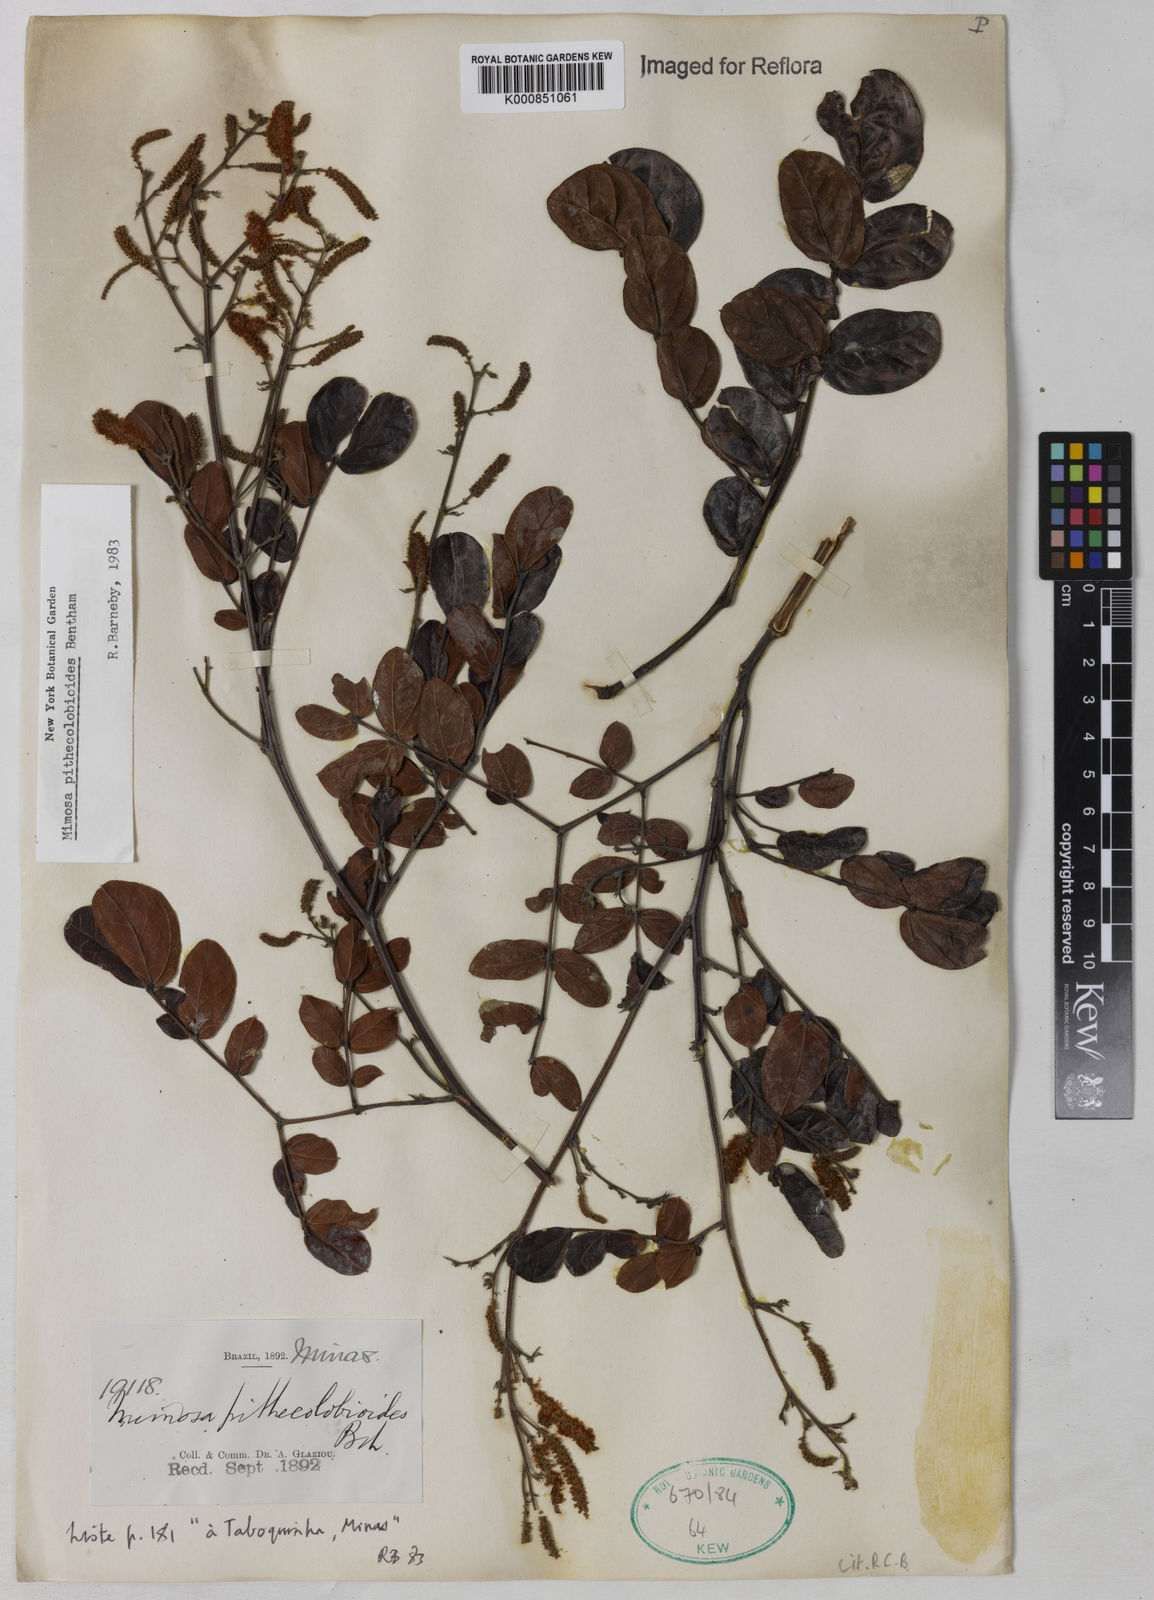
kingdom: Plantae
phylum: Tracheophyta
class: Magnoliopsida
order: Fabales
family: Fabaceae
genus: Mimosa
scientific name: Mimosa pithecolobioides
